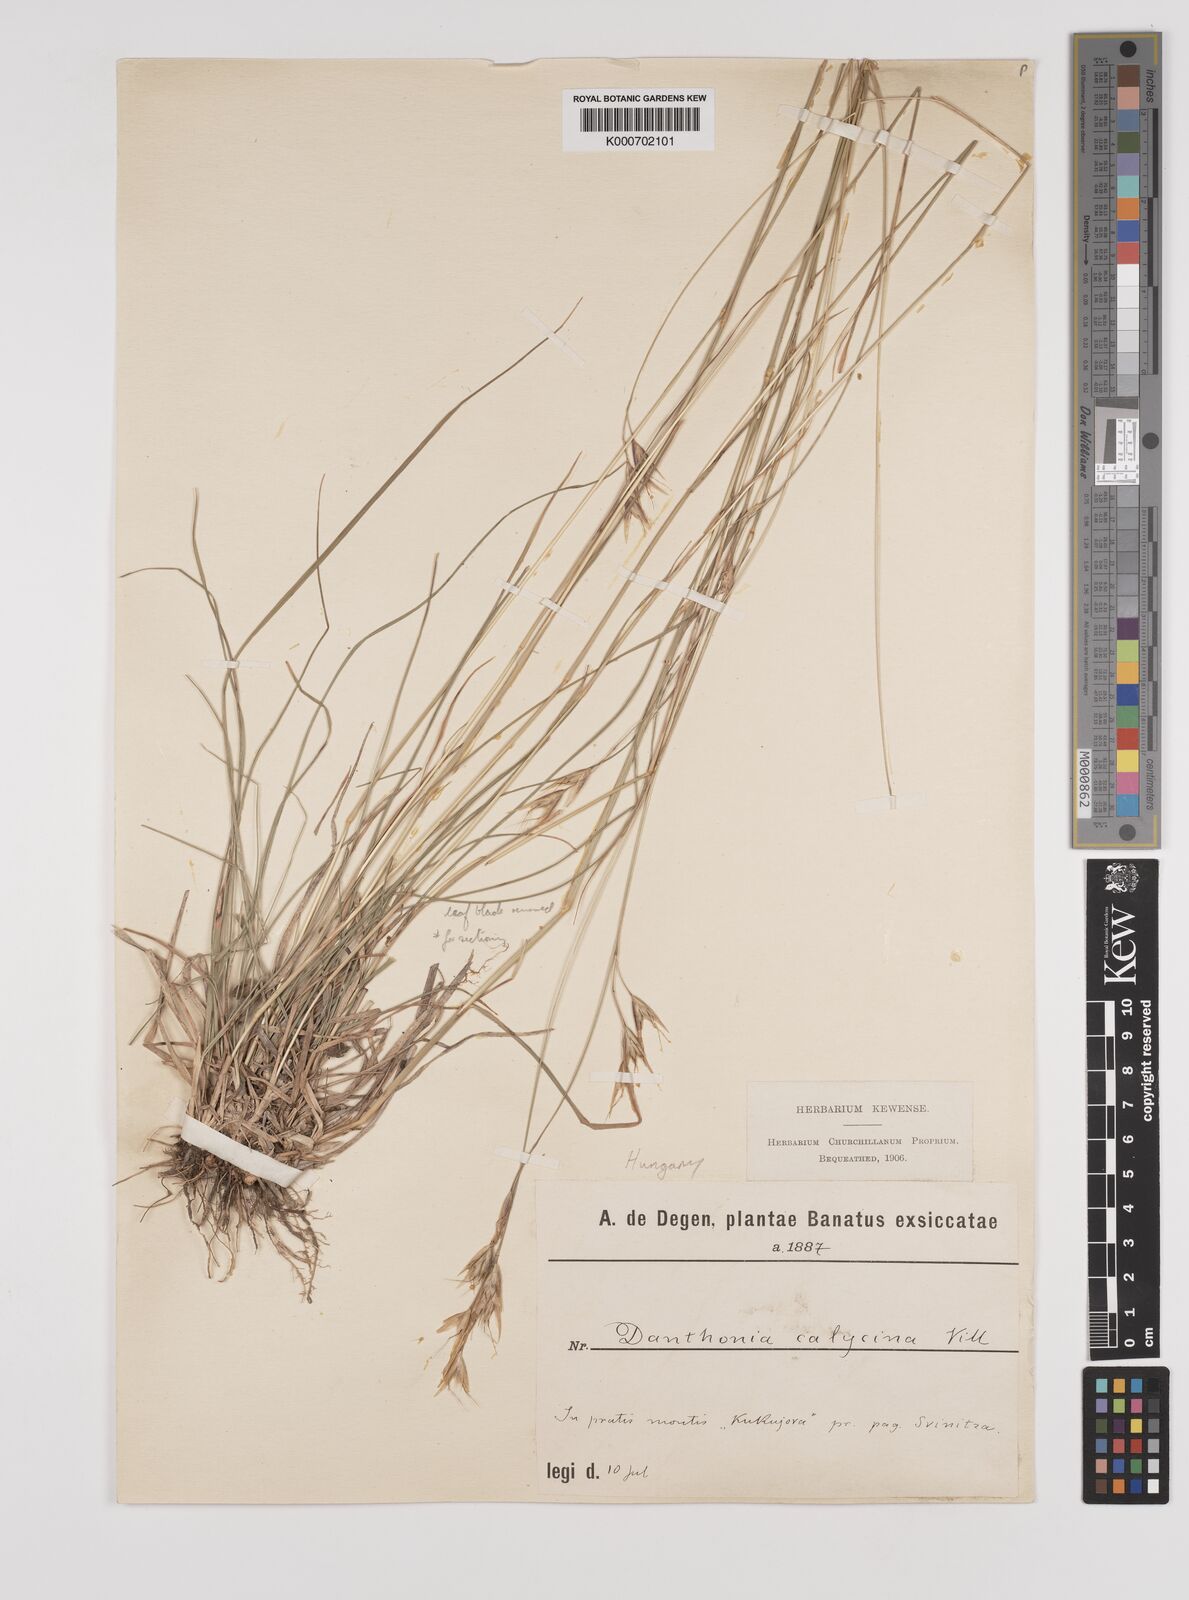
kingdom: Plantae
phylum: Tracheophyta
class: Liliopsida
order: Poales
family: Poaceae
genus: Danthonia
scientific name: Danthonia alpina
